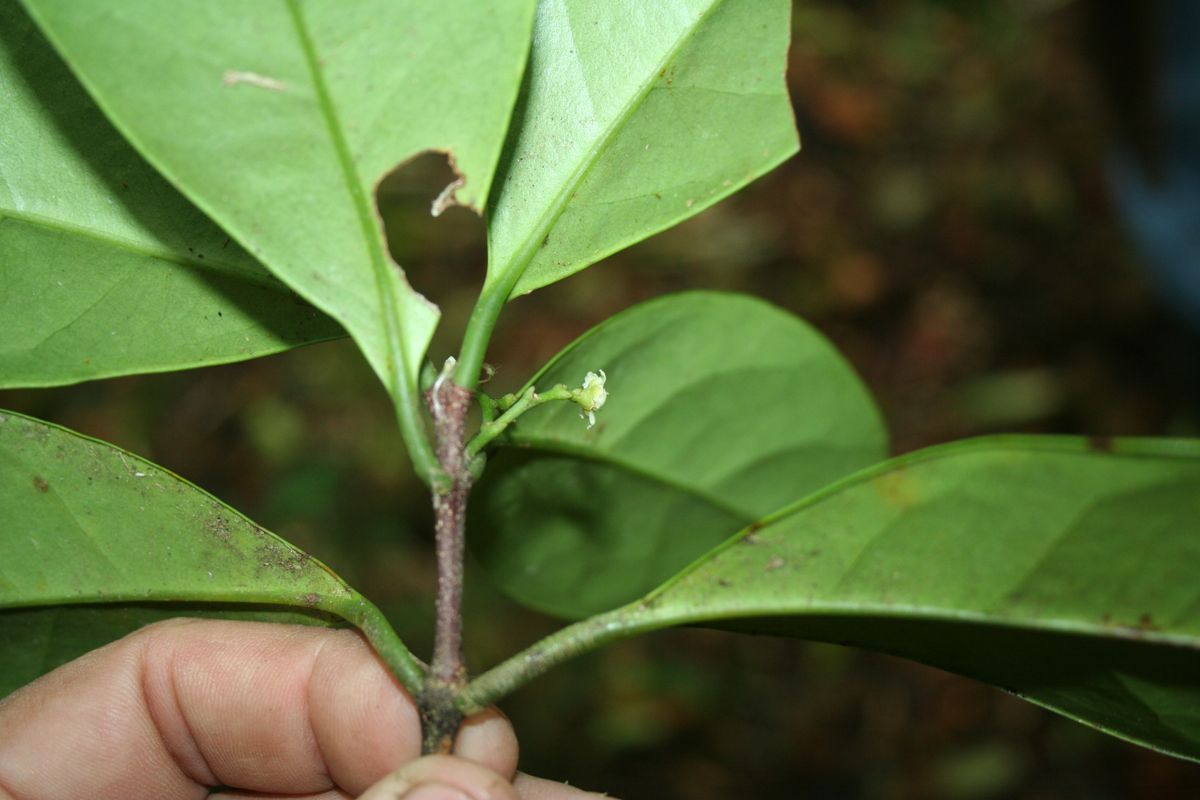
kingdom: Plantae
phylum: Tracheophyta
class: Magnoliopsida
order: Celastrales
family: Celastraceae
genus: Quetzalia
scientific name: Quetzalia ilicina
